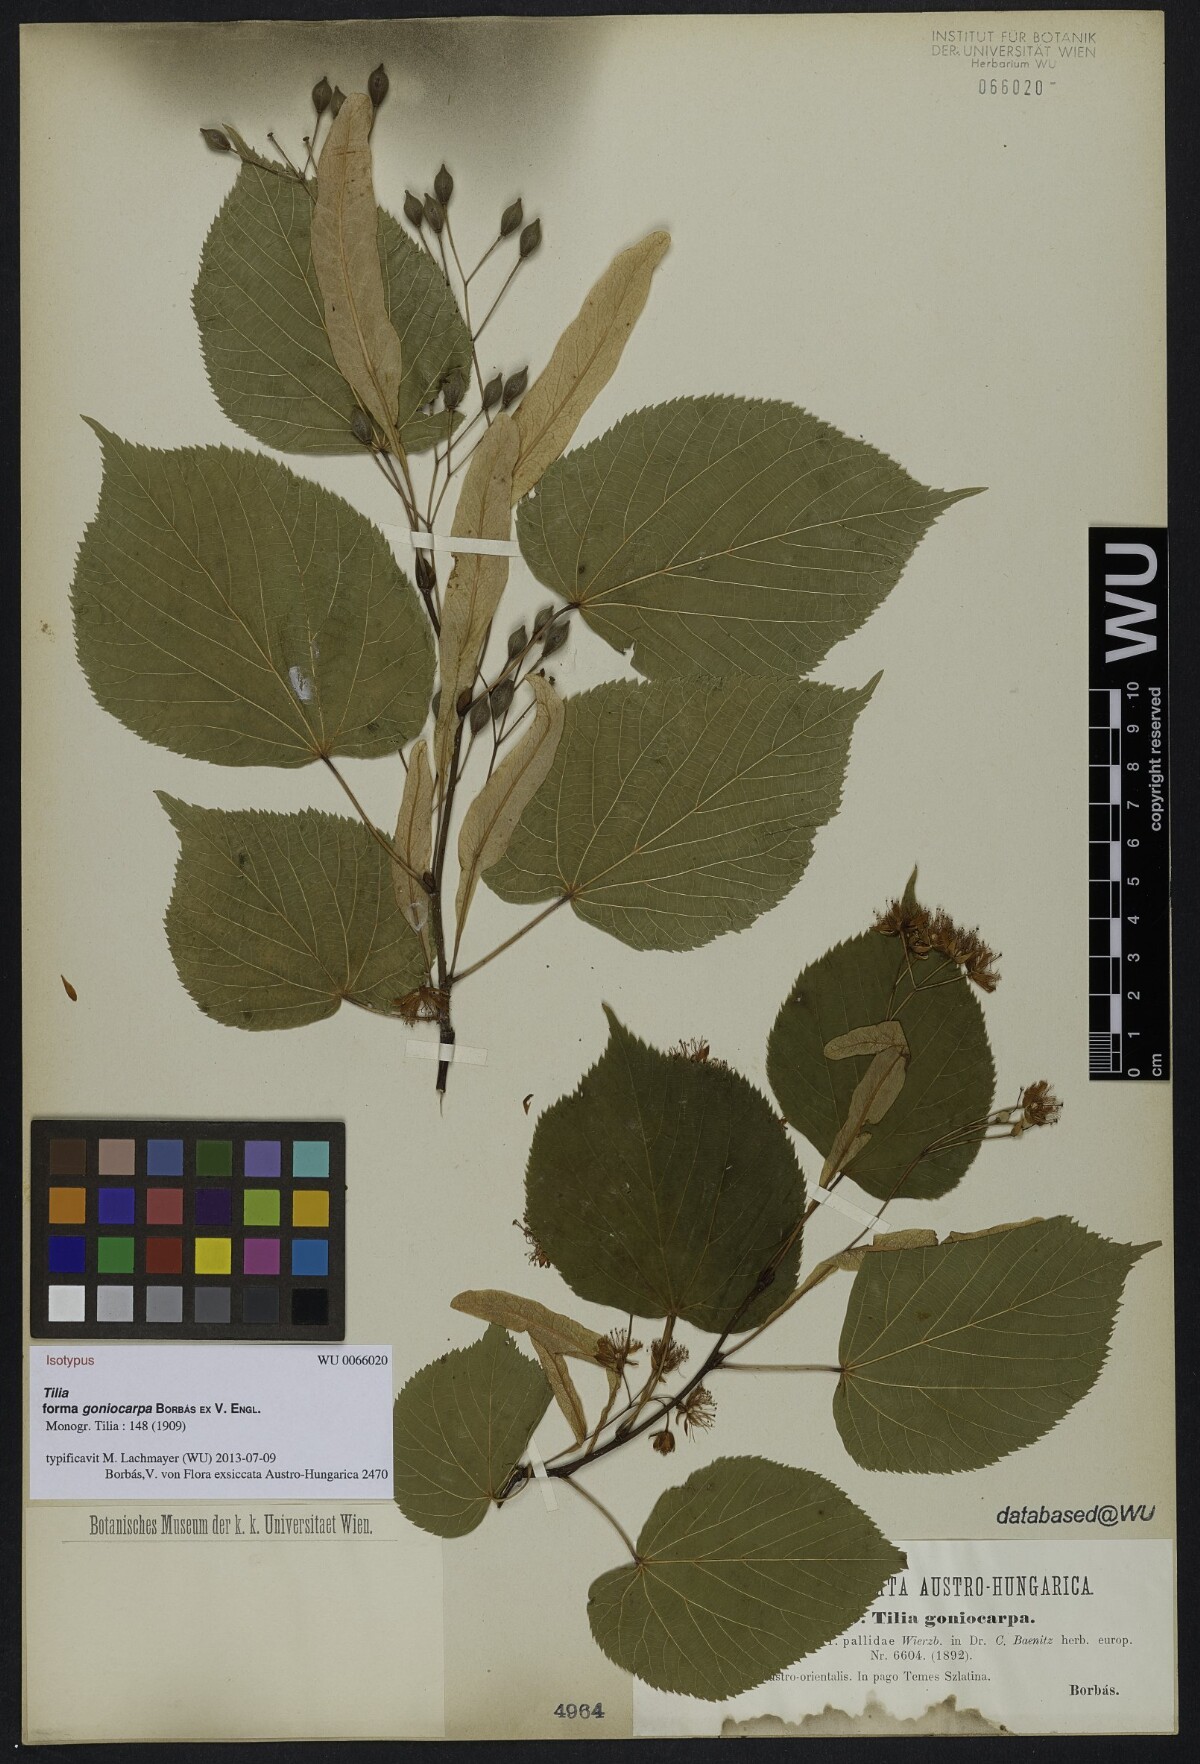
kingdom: Plantae
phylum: Tracheophyta
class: Magnoliopsida
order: Malvales
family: Malvaceae
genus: Tilia
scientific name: Tilia goniocarpa
